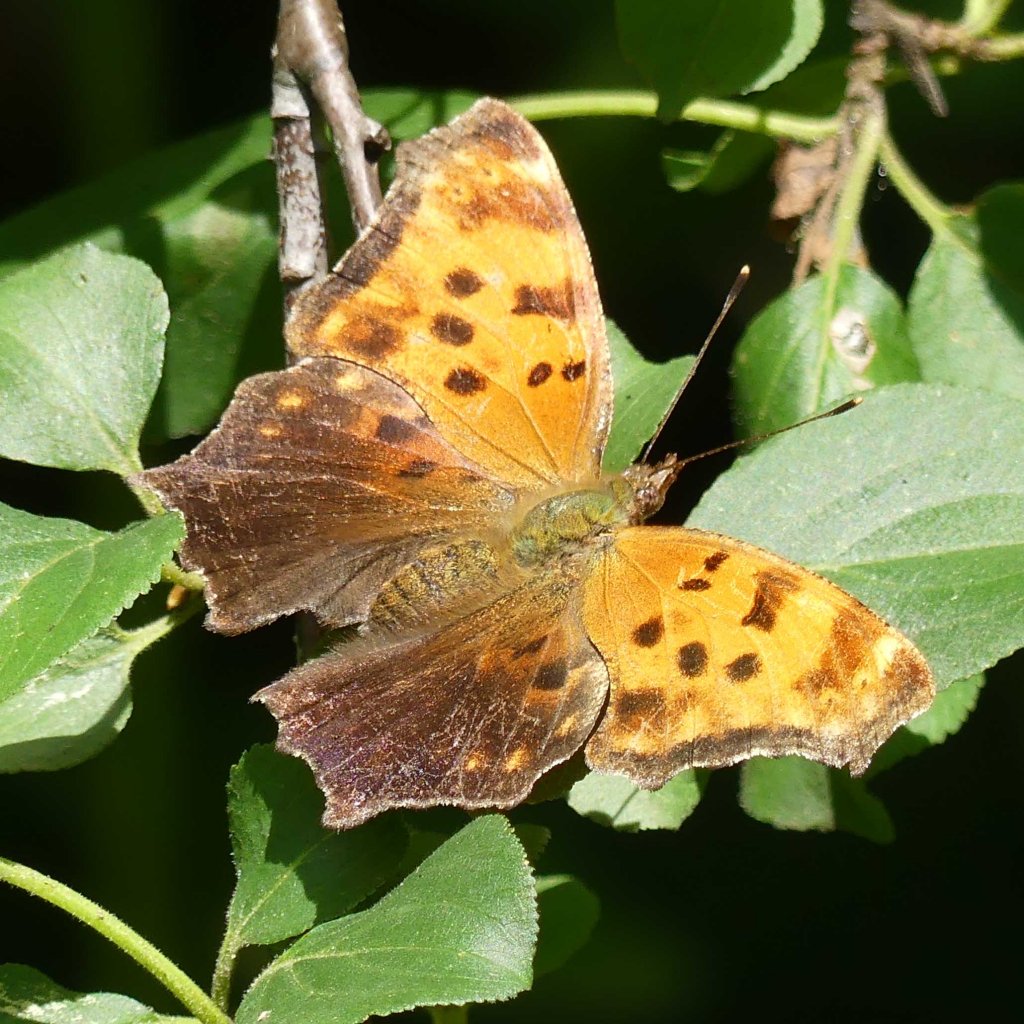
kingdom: Animalia
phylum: Arthropoda
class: Insecta
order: Lepidoptera
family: Nymphalidae
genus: Polygonia
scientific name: Polygonia comma
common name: Eastern Comma
